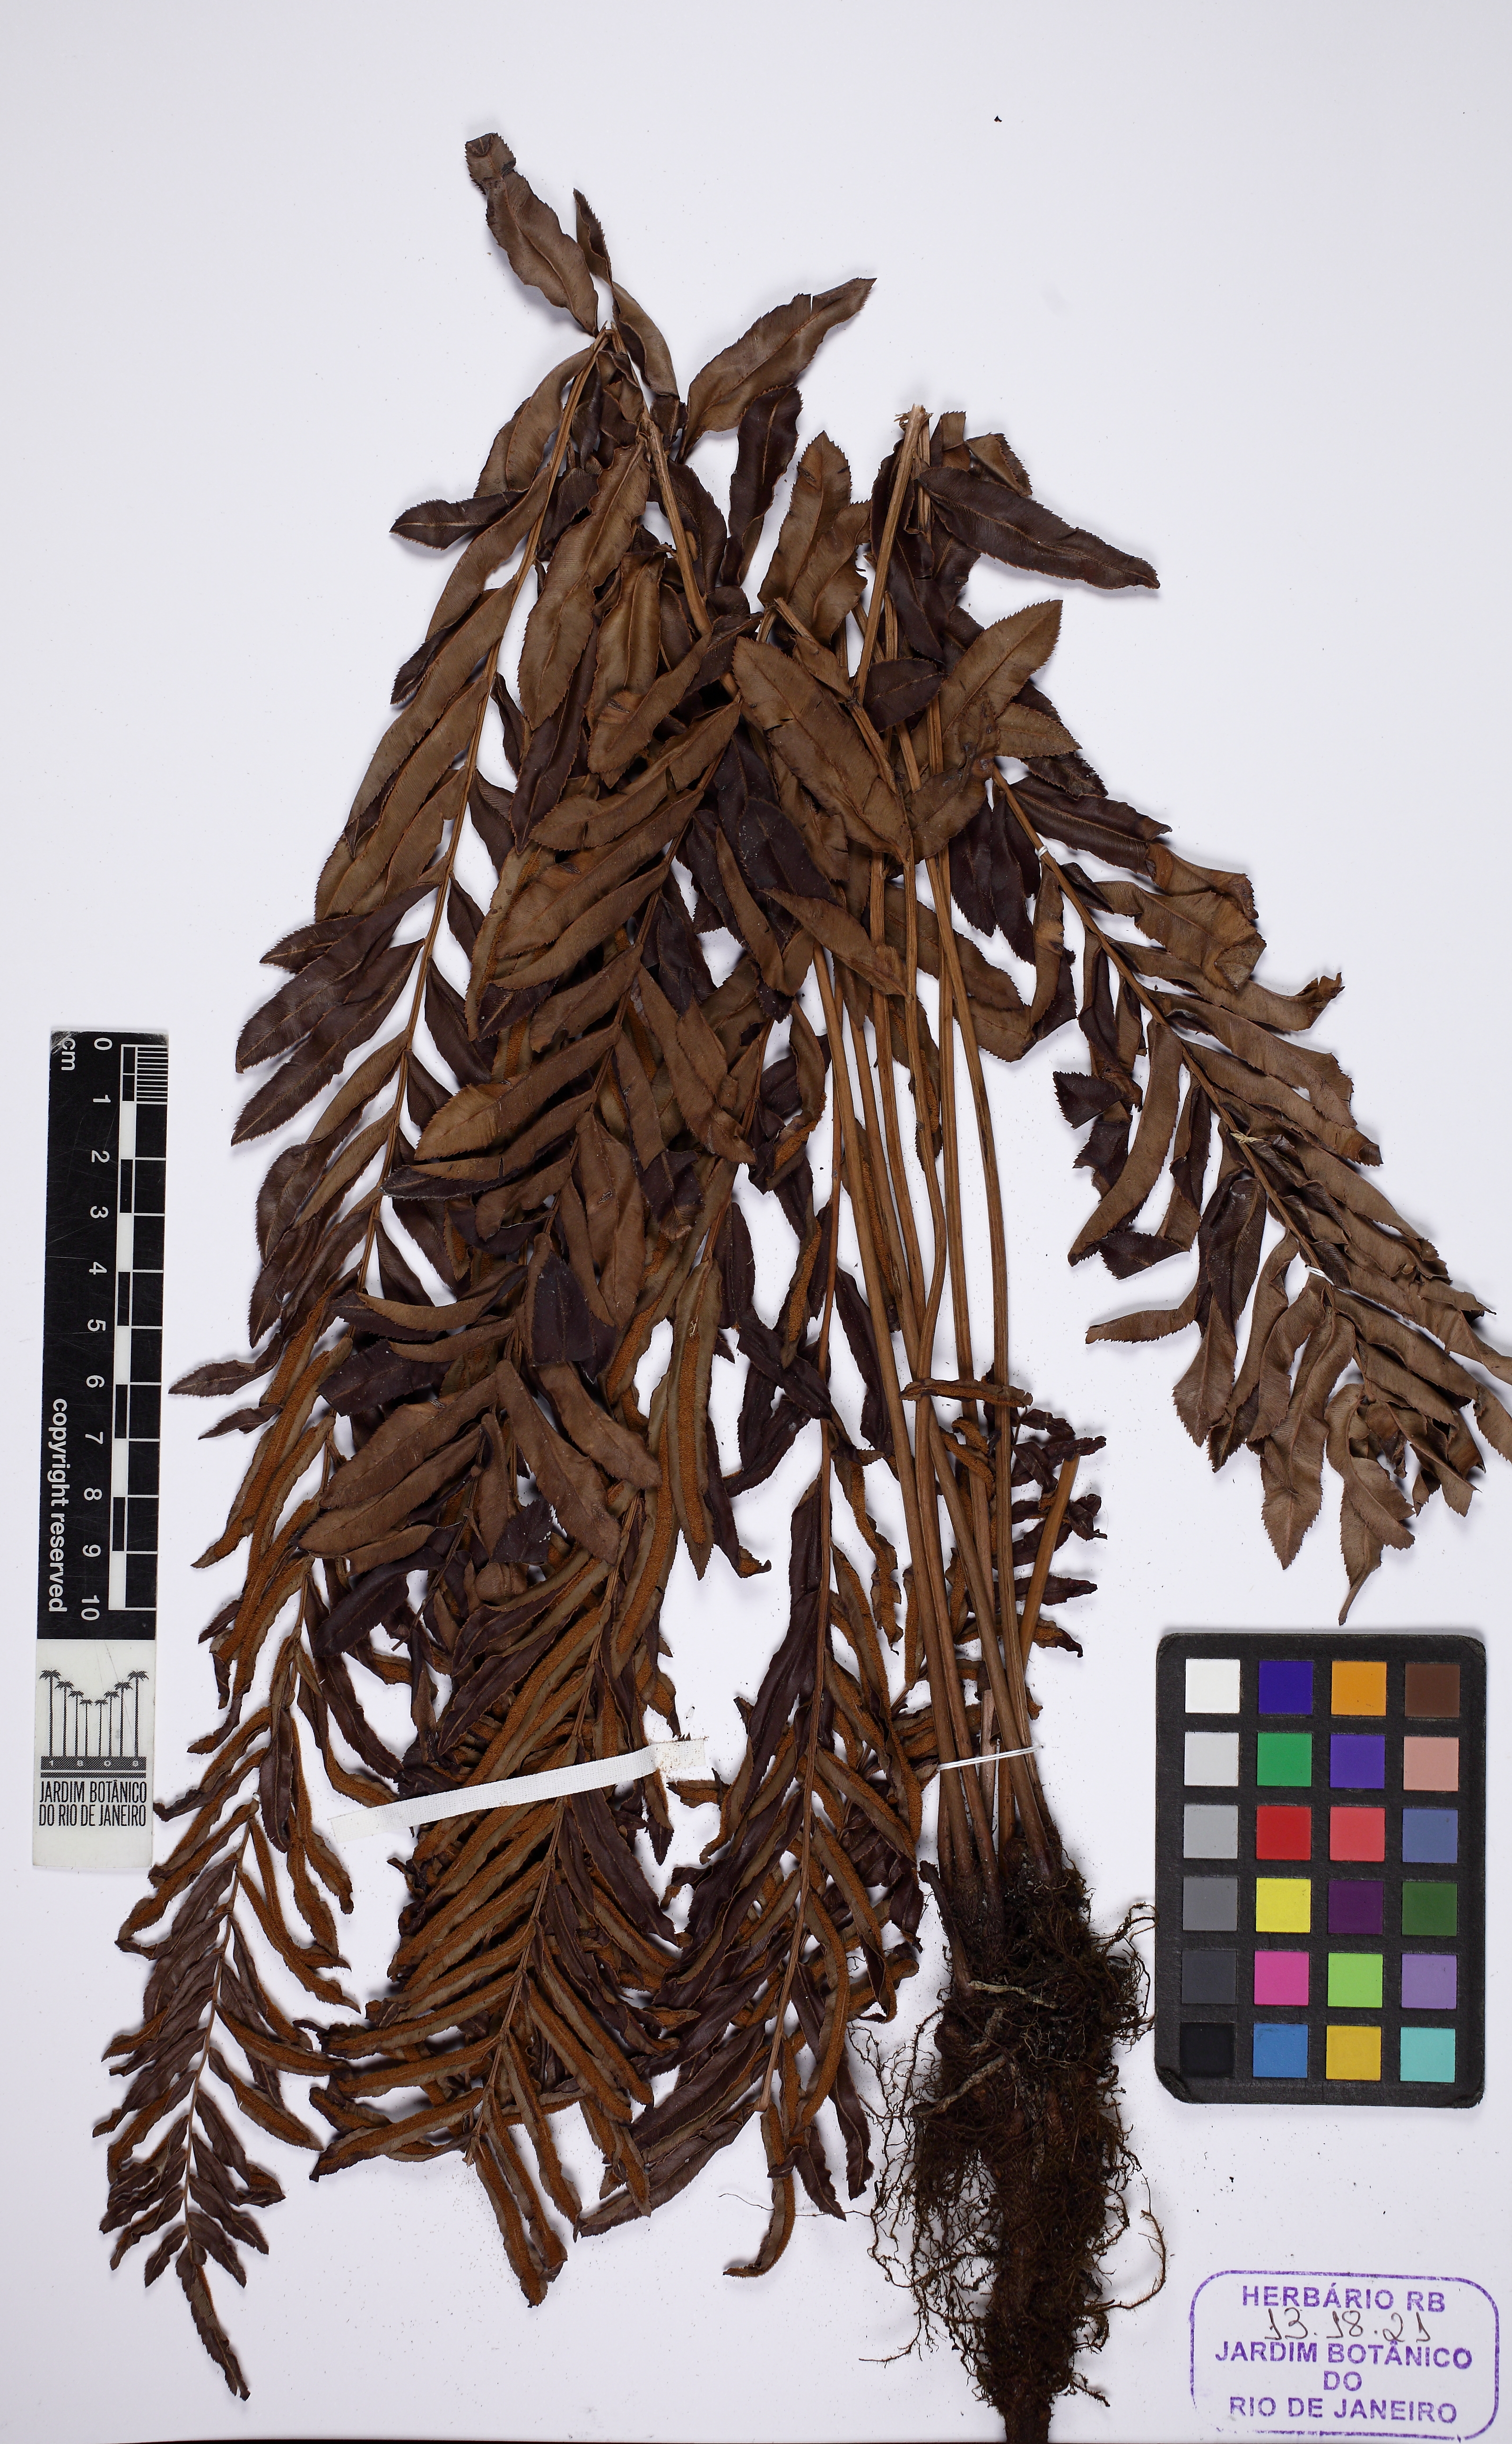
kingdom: Plantae
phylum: Tracheophyta
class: Polypodiopsida
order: Polypodiales
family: Blechnaceae
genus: Telmatoblechnum
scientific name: Telmatoblechnum serrulatum
